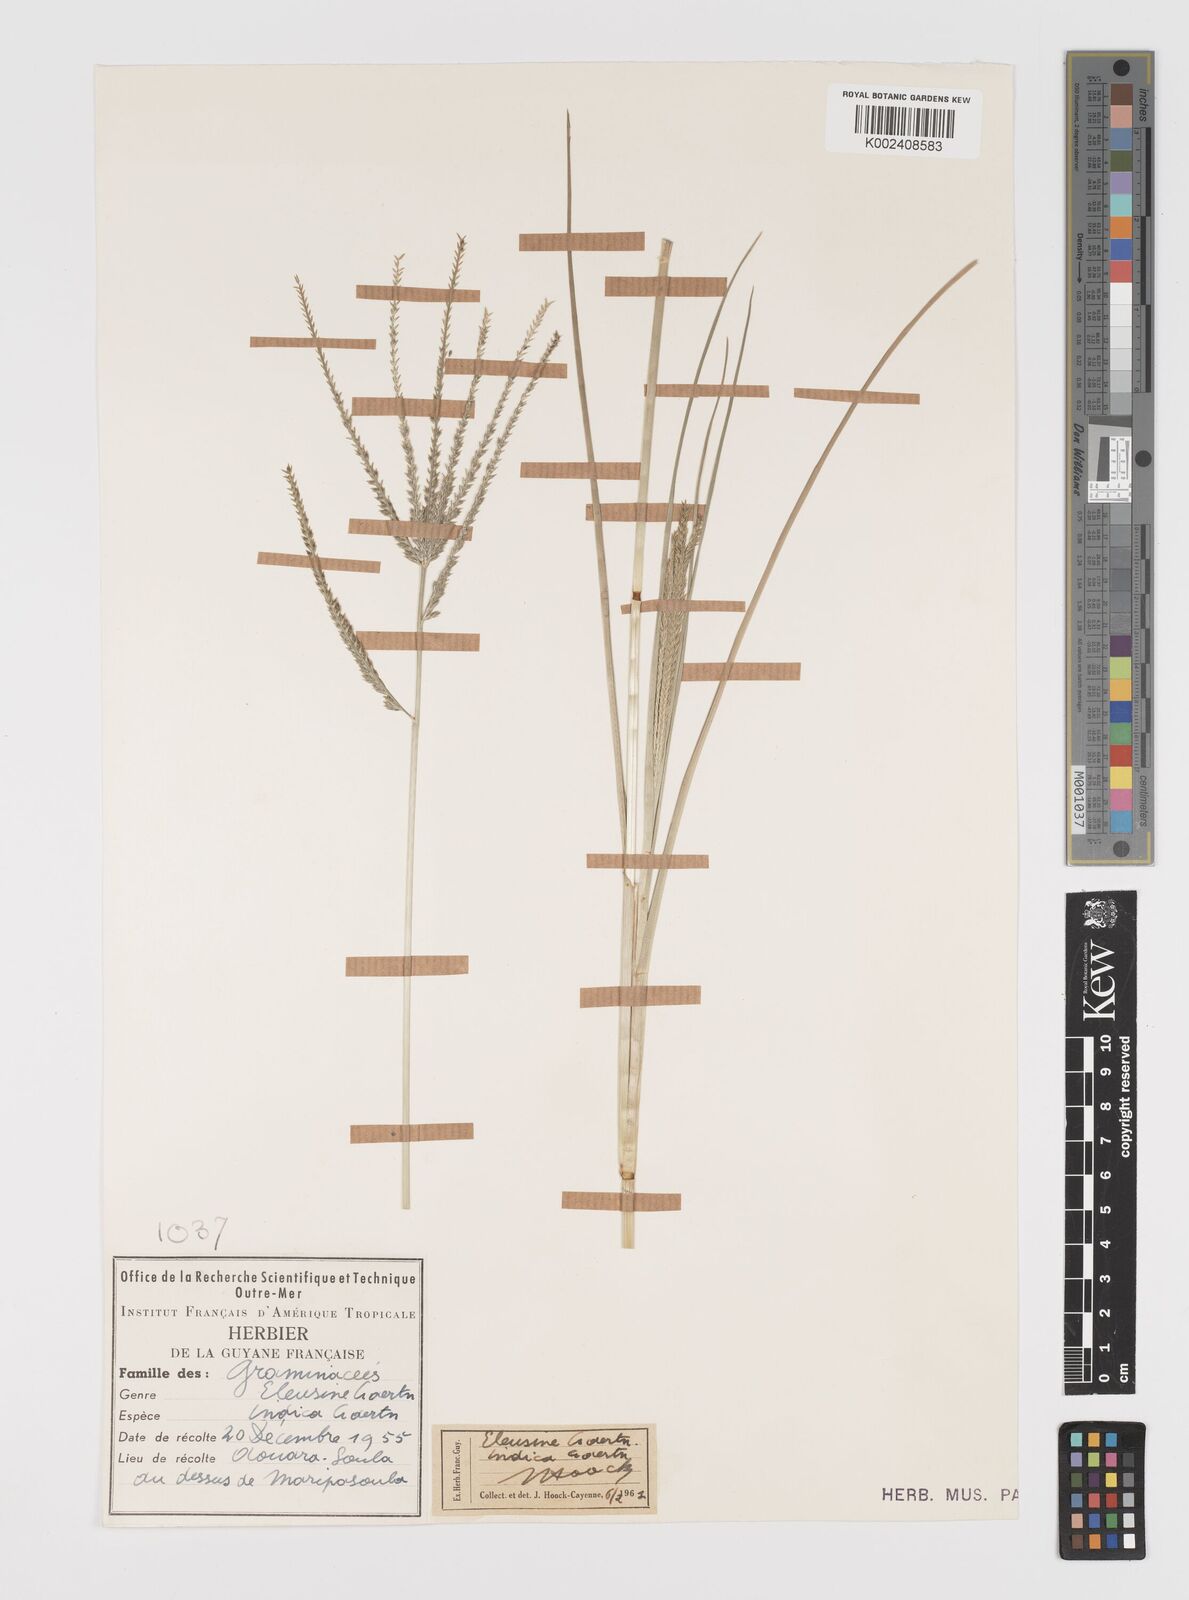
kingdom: Plantae
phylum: Tracheophyta
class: Liliopsida
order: Poales
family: Poaceae
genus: Eleusine
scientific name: Eleusine
